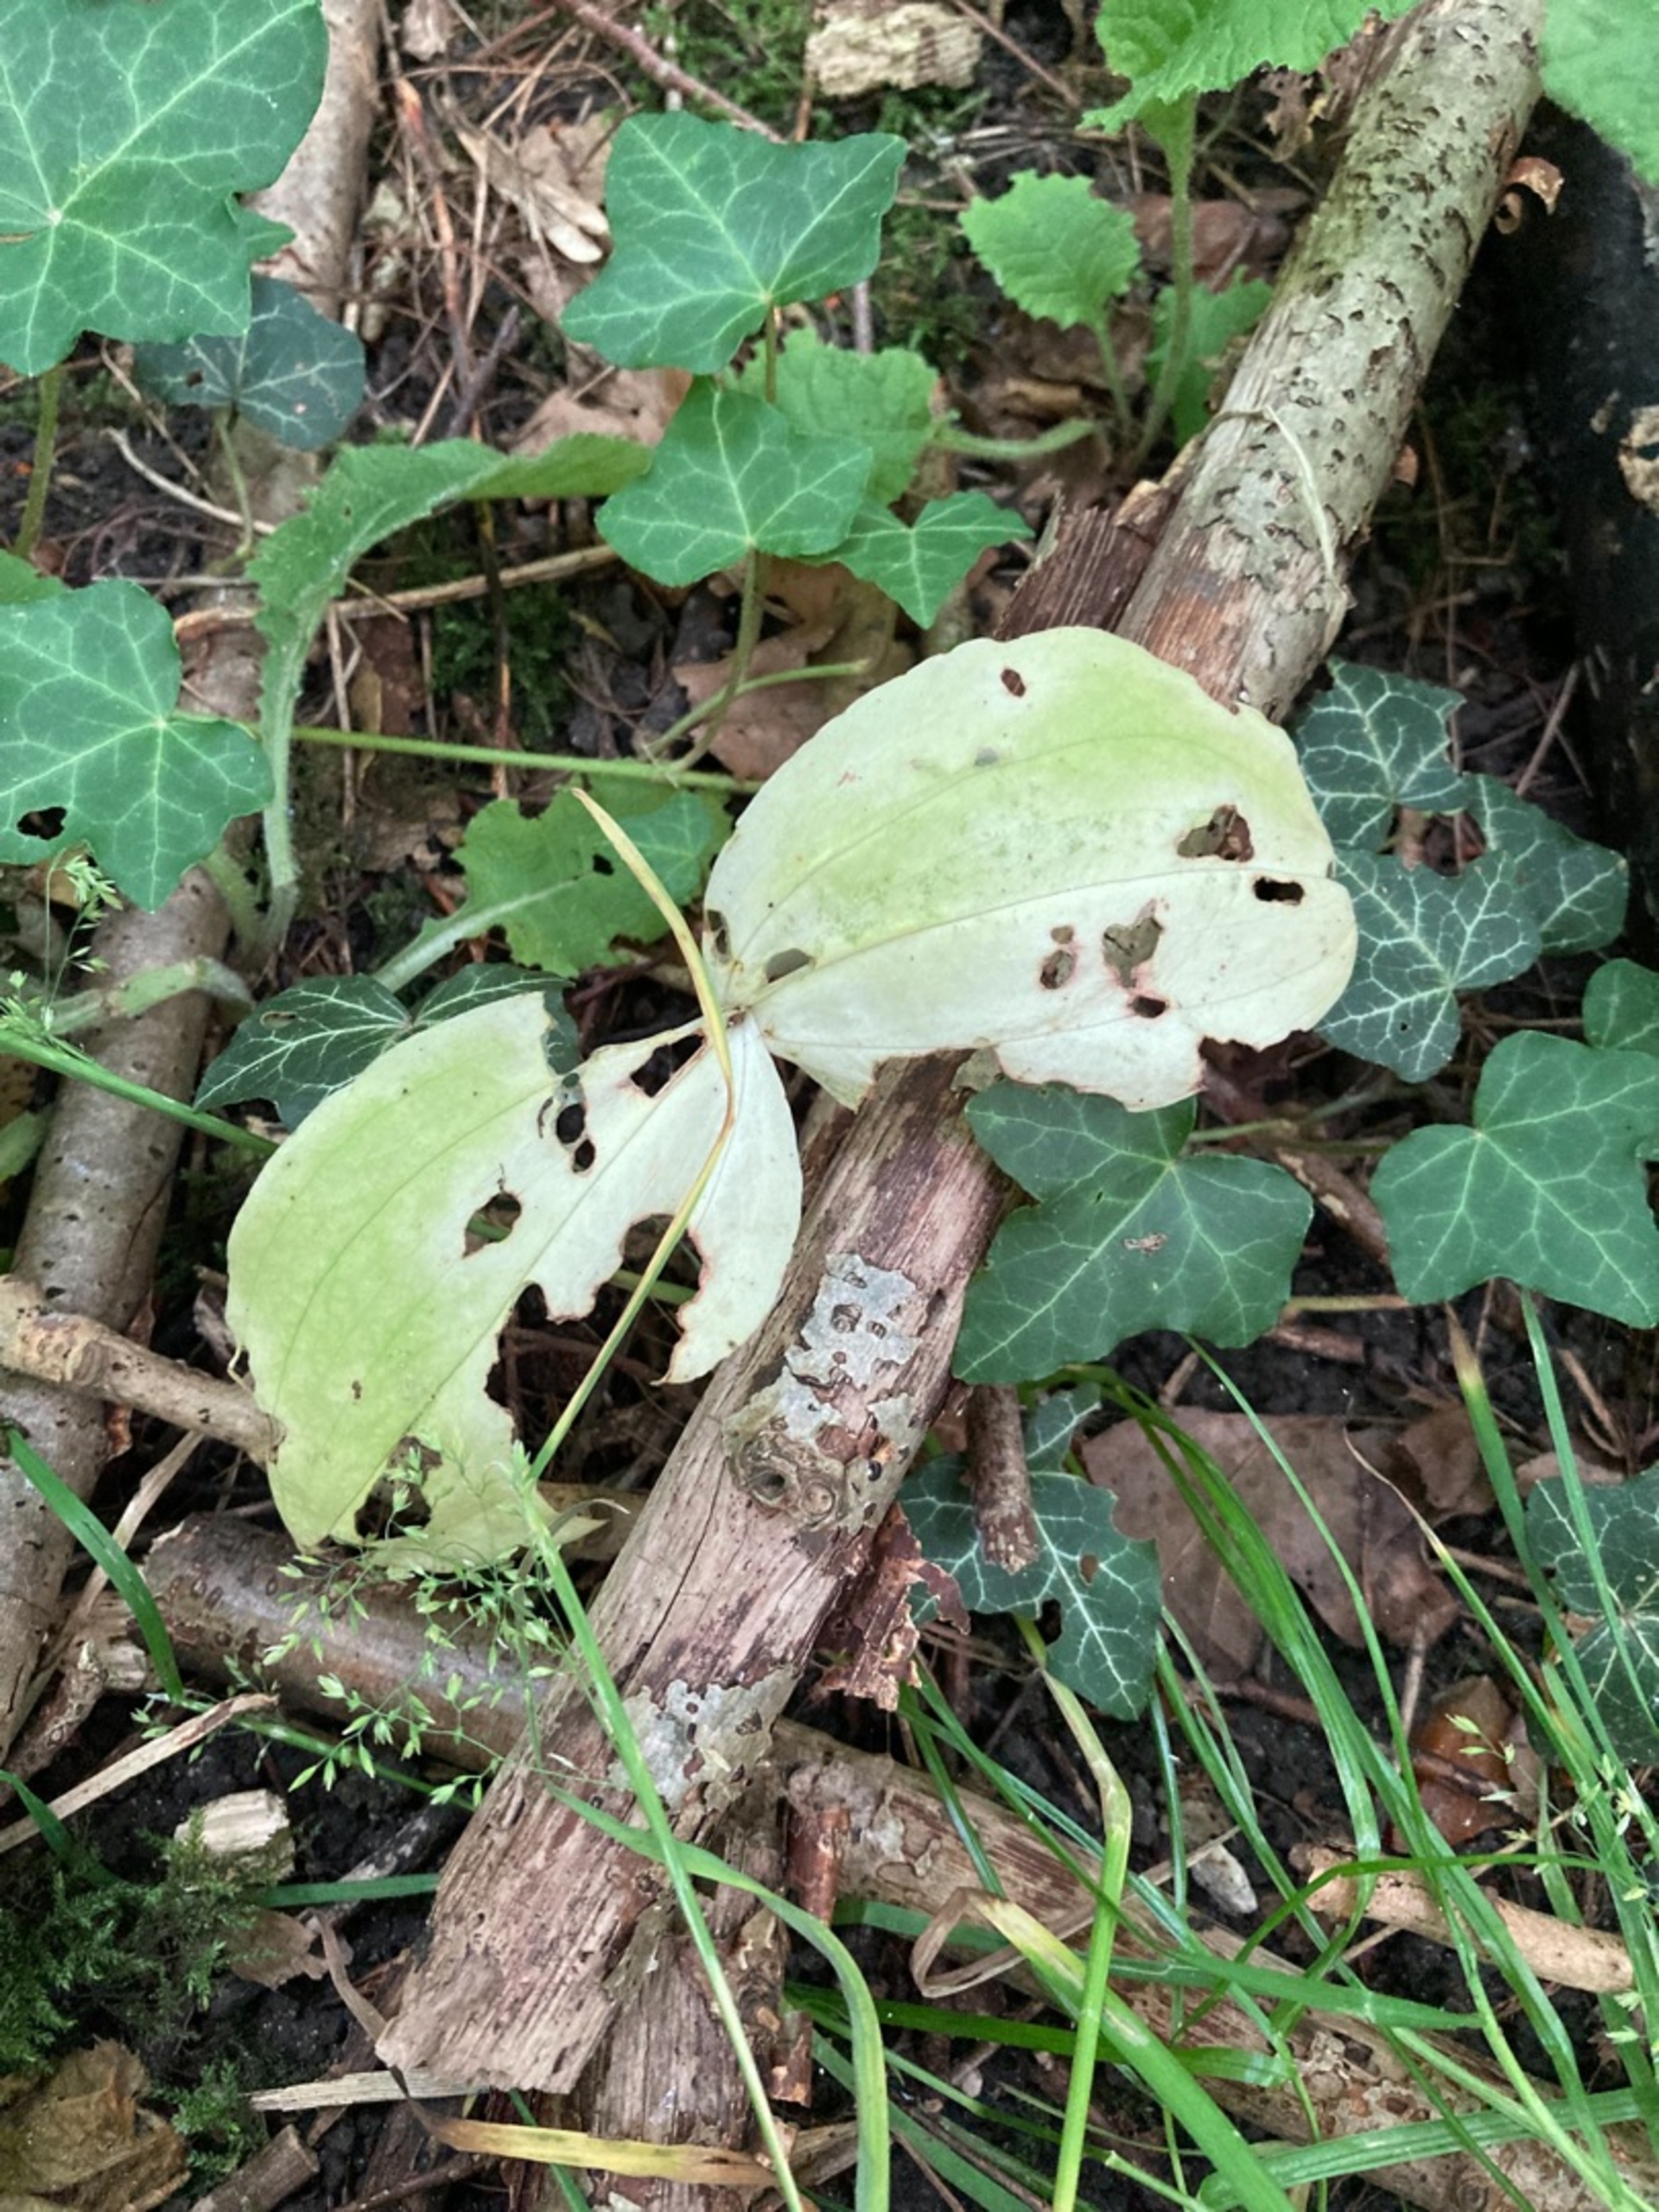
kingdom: Plantae
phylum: Tracheophyta
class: Liliopsida
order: Asparagales
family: Orchidaceae
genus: Neottia
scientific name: Neottia ovata
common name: Ægbladet fliglæbe
